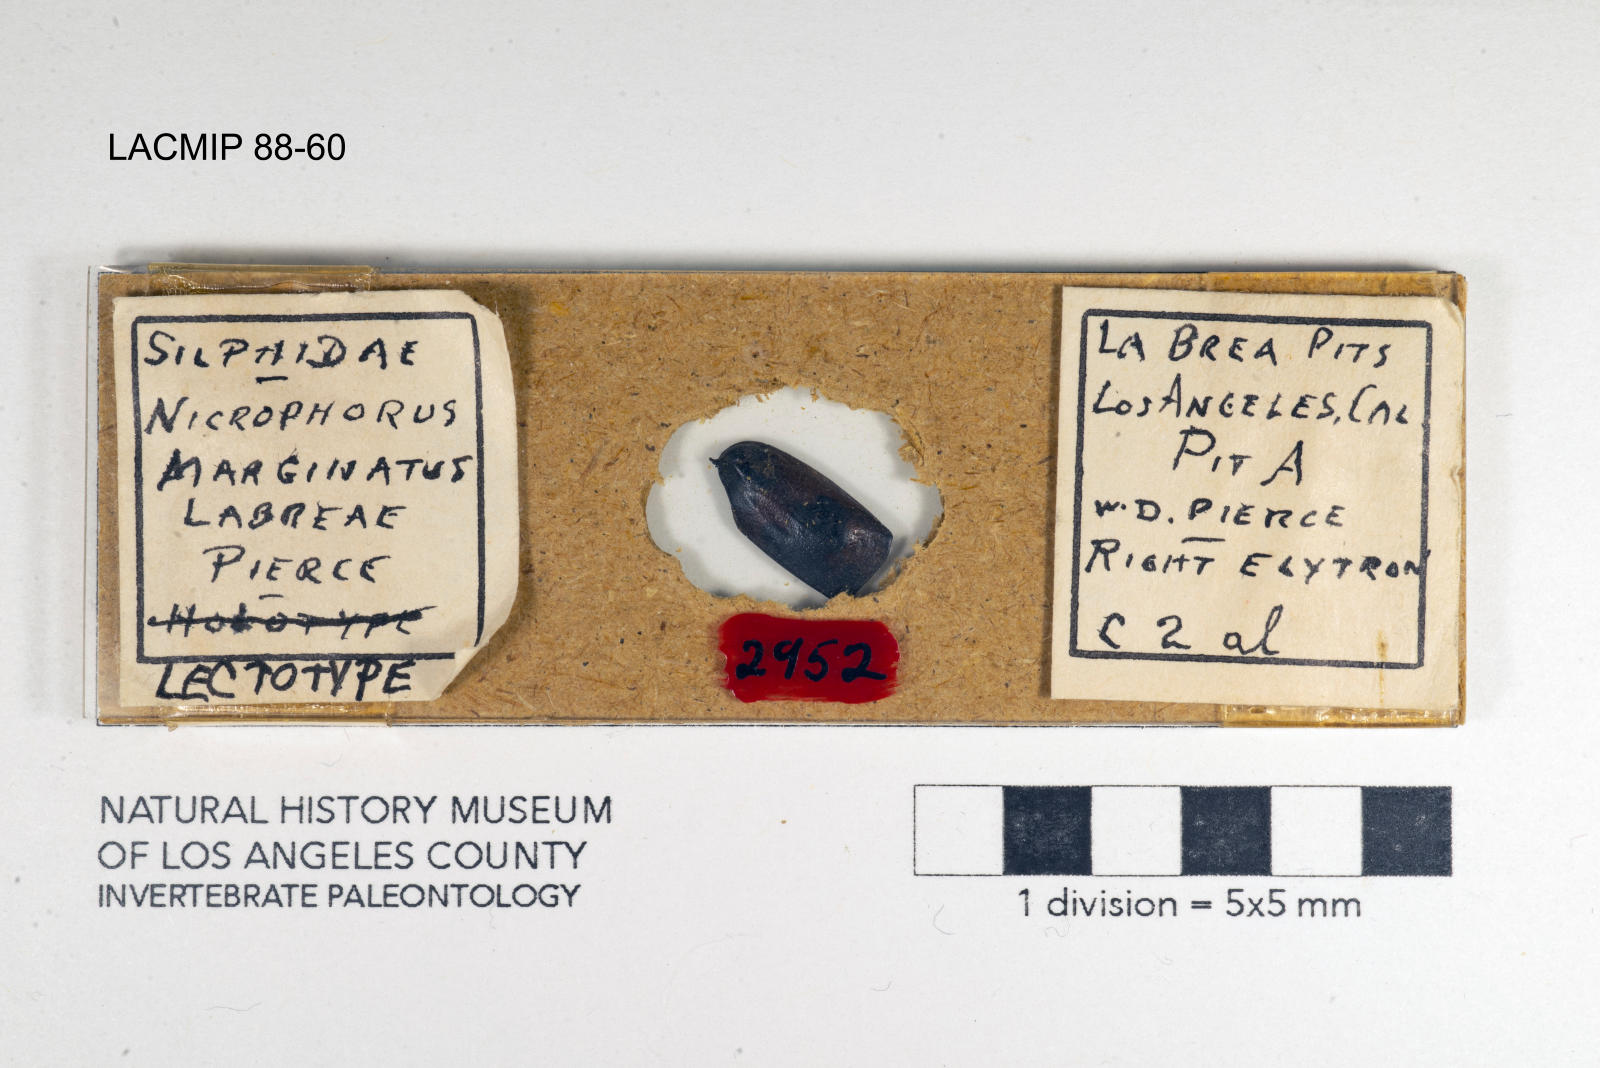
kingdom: Animalia
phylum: Arthropoda
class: Insecta
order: Coleoptera
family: Staphylinidae
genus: Nicrophorus
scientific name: Nicrophorus marginatus
